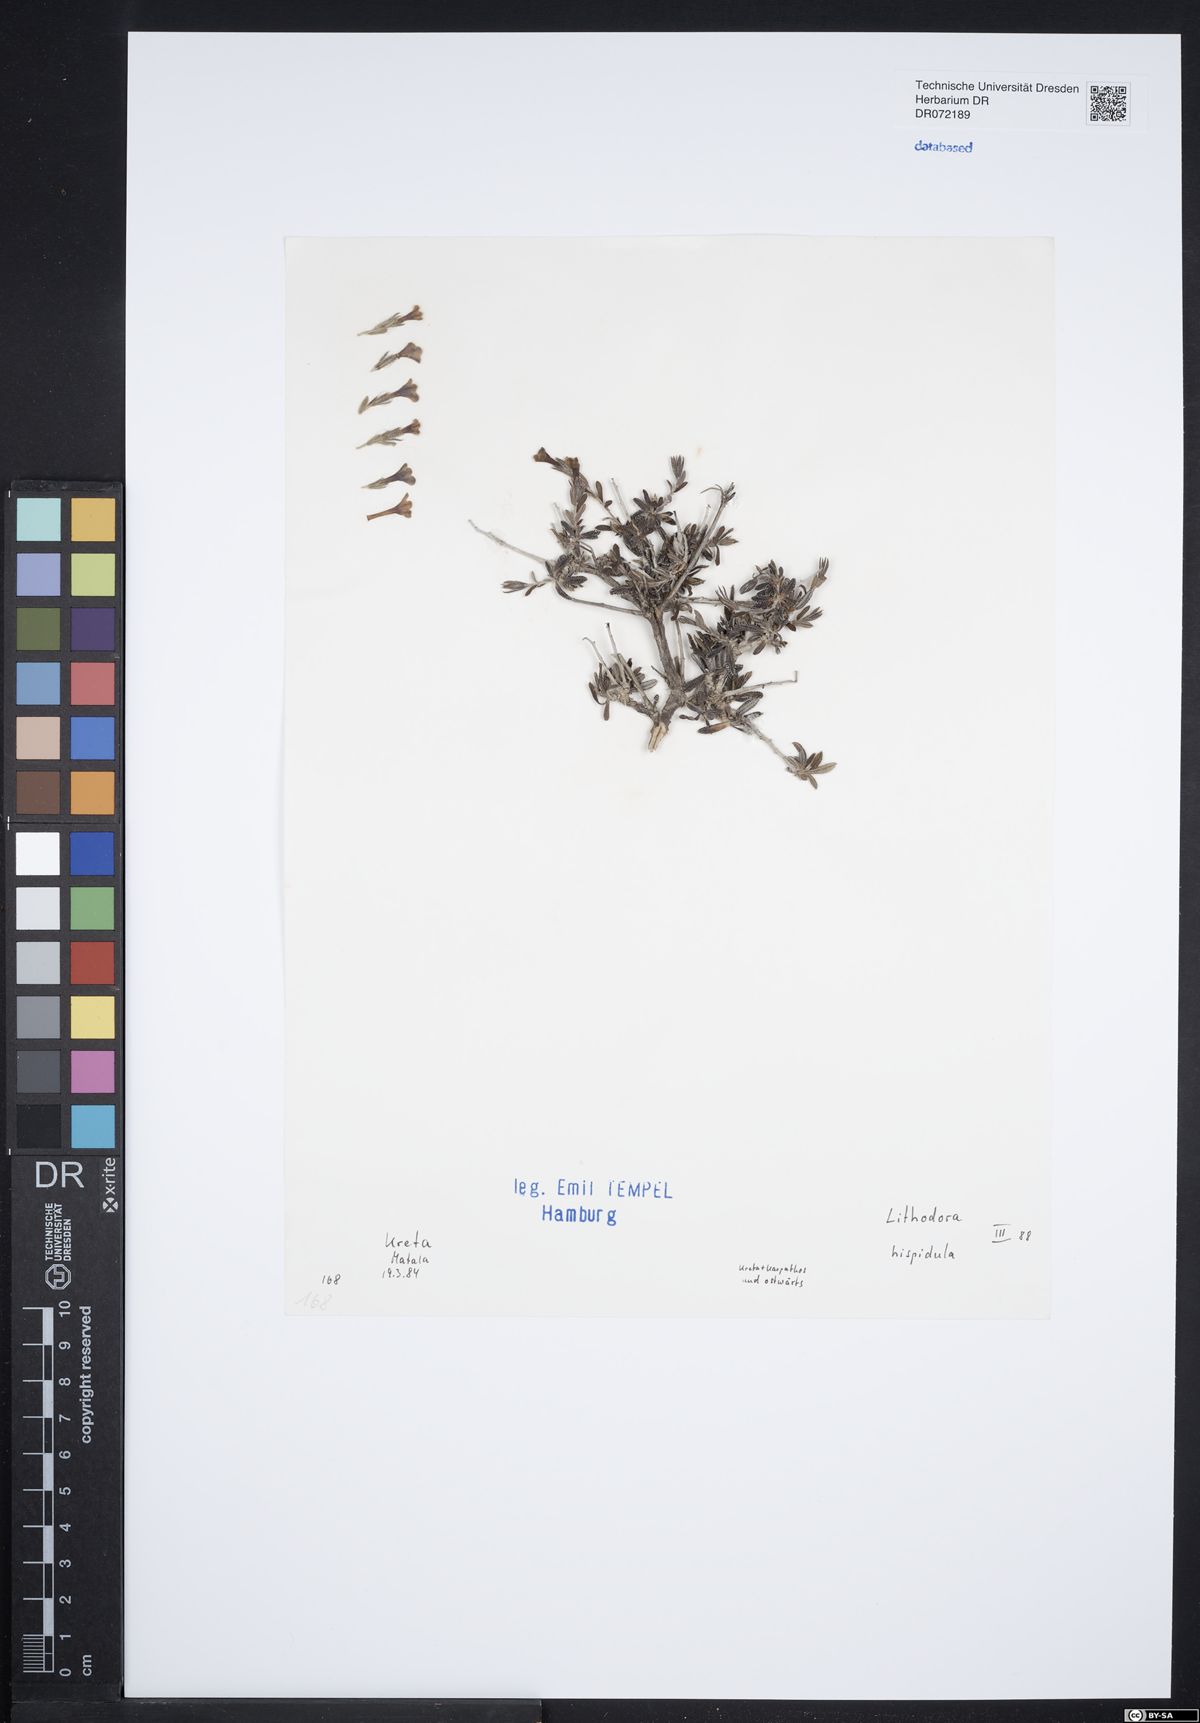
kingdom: Plantae
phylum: Tracheophyta
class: Magnoliopsida
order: Boraginales
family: Boraginaceae
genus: Lithodora
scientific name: Lithodora hispidula
